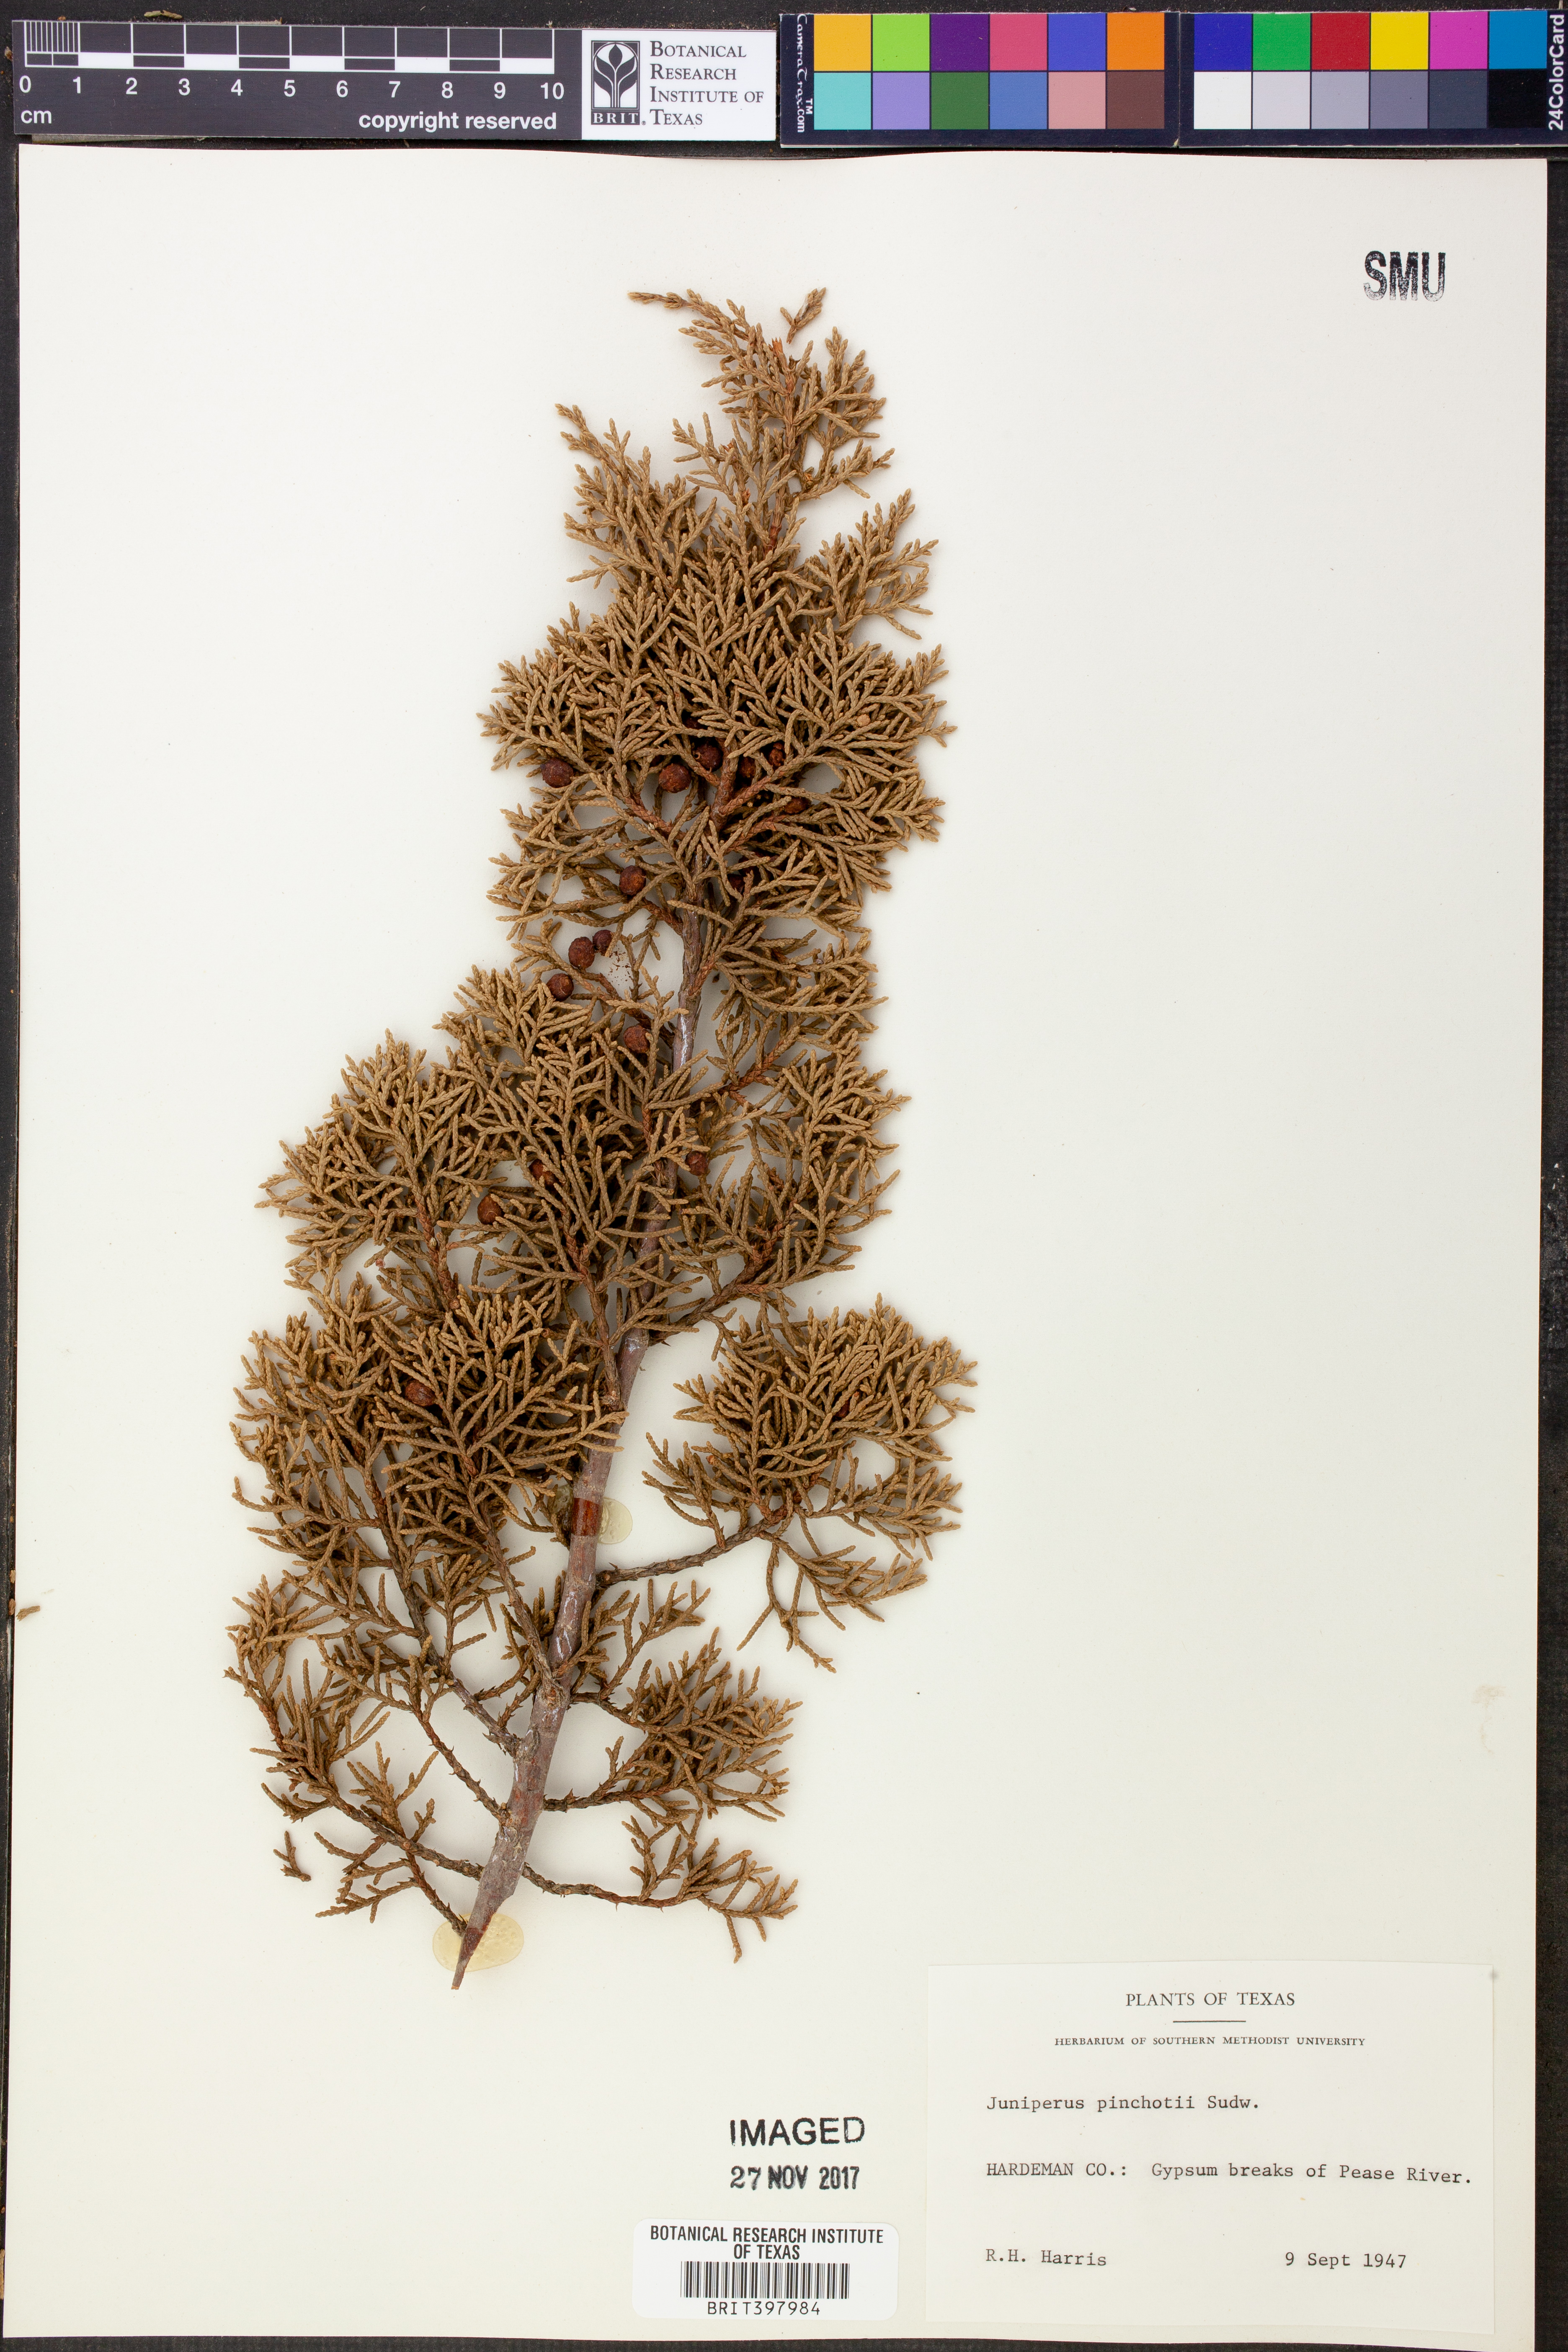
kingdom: Plantae
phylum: Tracheophyta
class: Pinopsida
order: Pinales
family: Cupressaceae
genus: Juniperus
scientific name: Juniperus pinchotii
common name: Pinchot juniper
